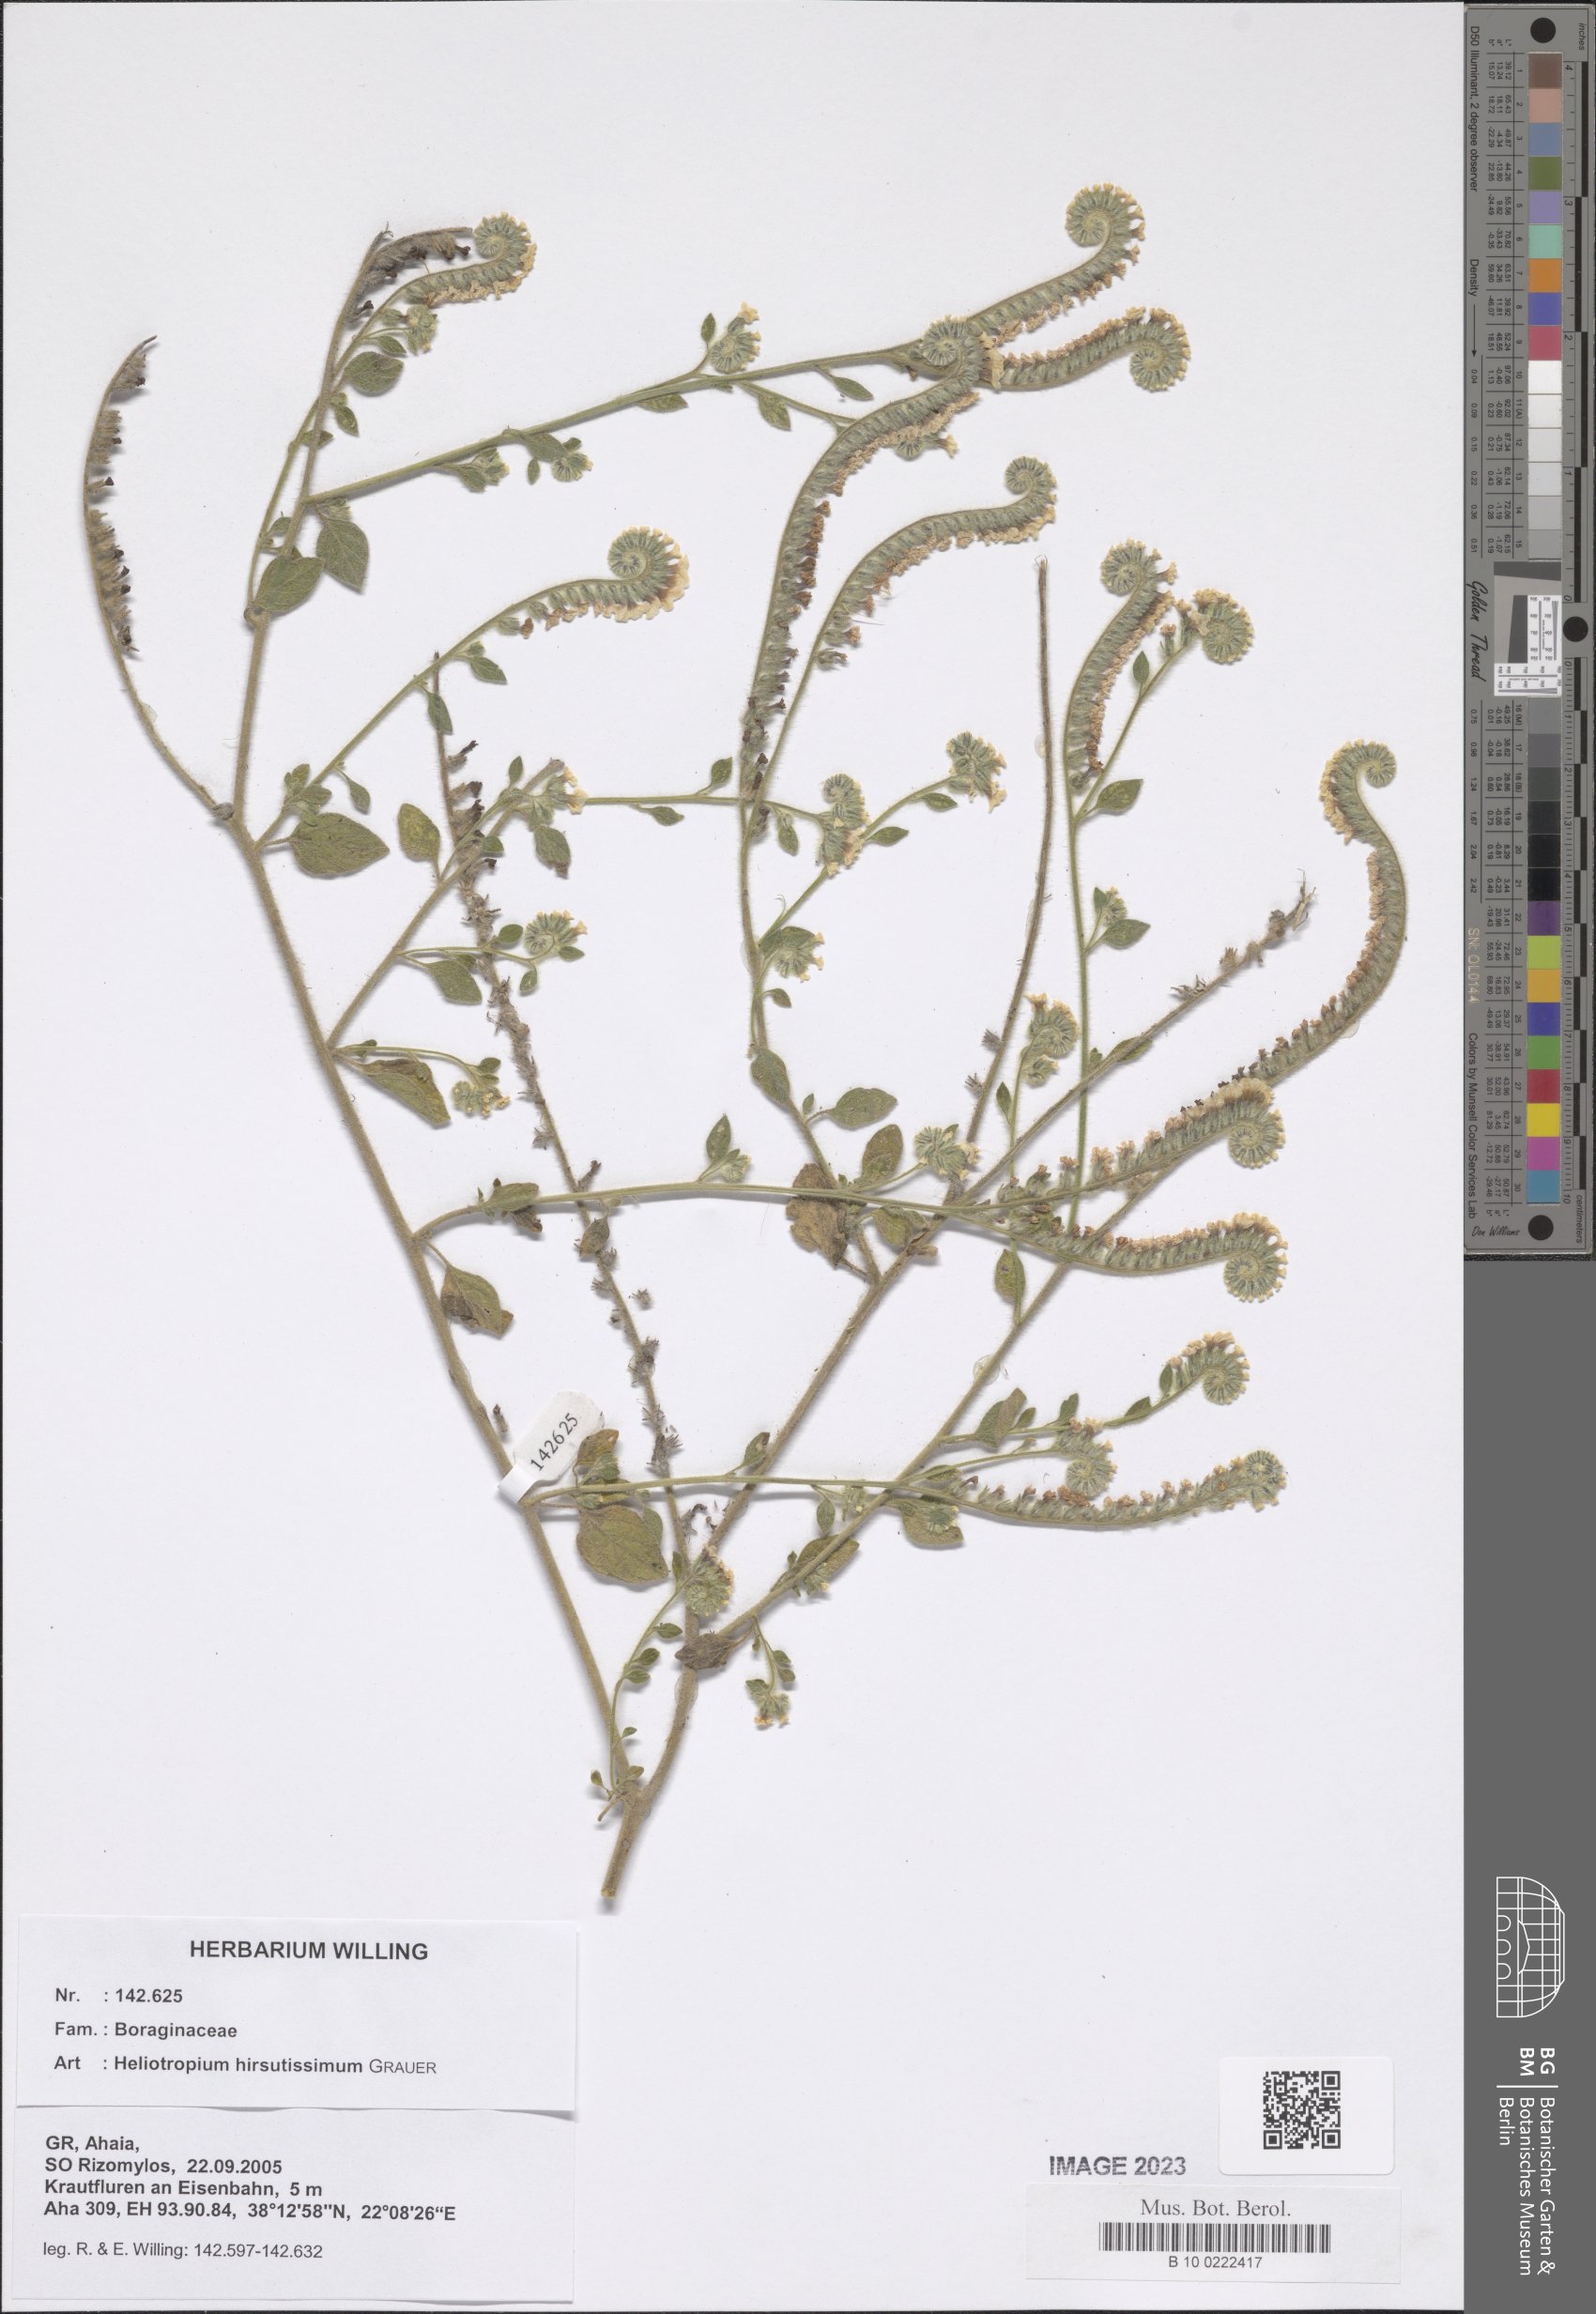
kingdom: Plantae
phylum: Tracheophyta
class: Magnoliopsida
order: Boraginales
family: Heliotropiaceae
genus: Heliotropium
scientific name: Heliotropium hirsutissimum
